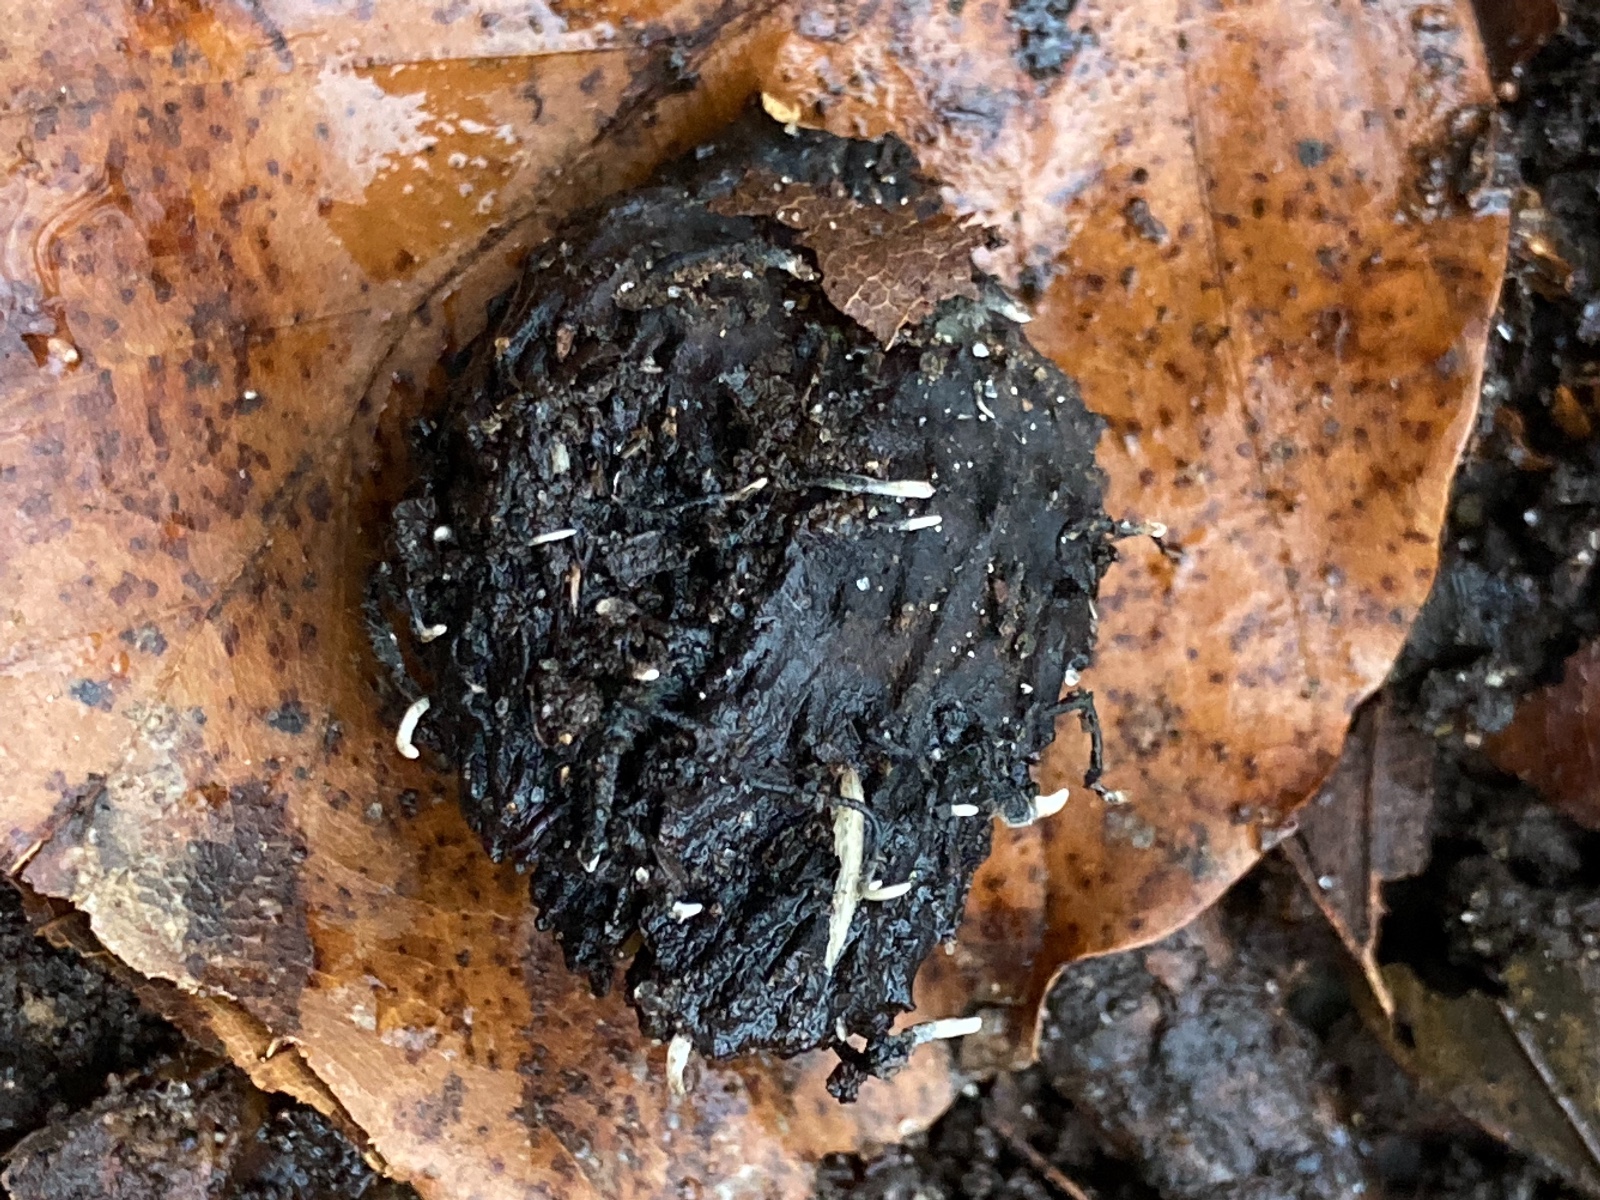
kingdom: Fungi
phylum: Ascomycota
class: Sordariomycetes
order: Xylariales
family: Xylariaceae
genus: Xylaria
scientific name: Xylaria carpophila
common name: bogskål-stødsvamp
